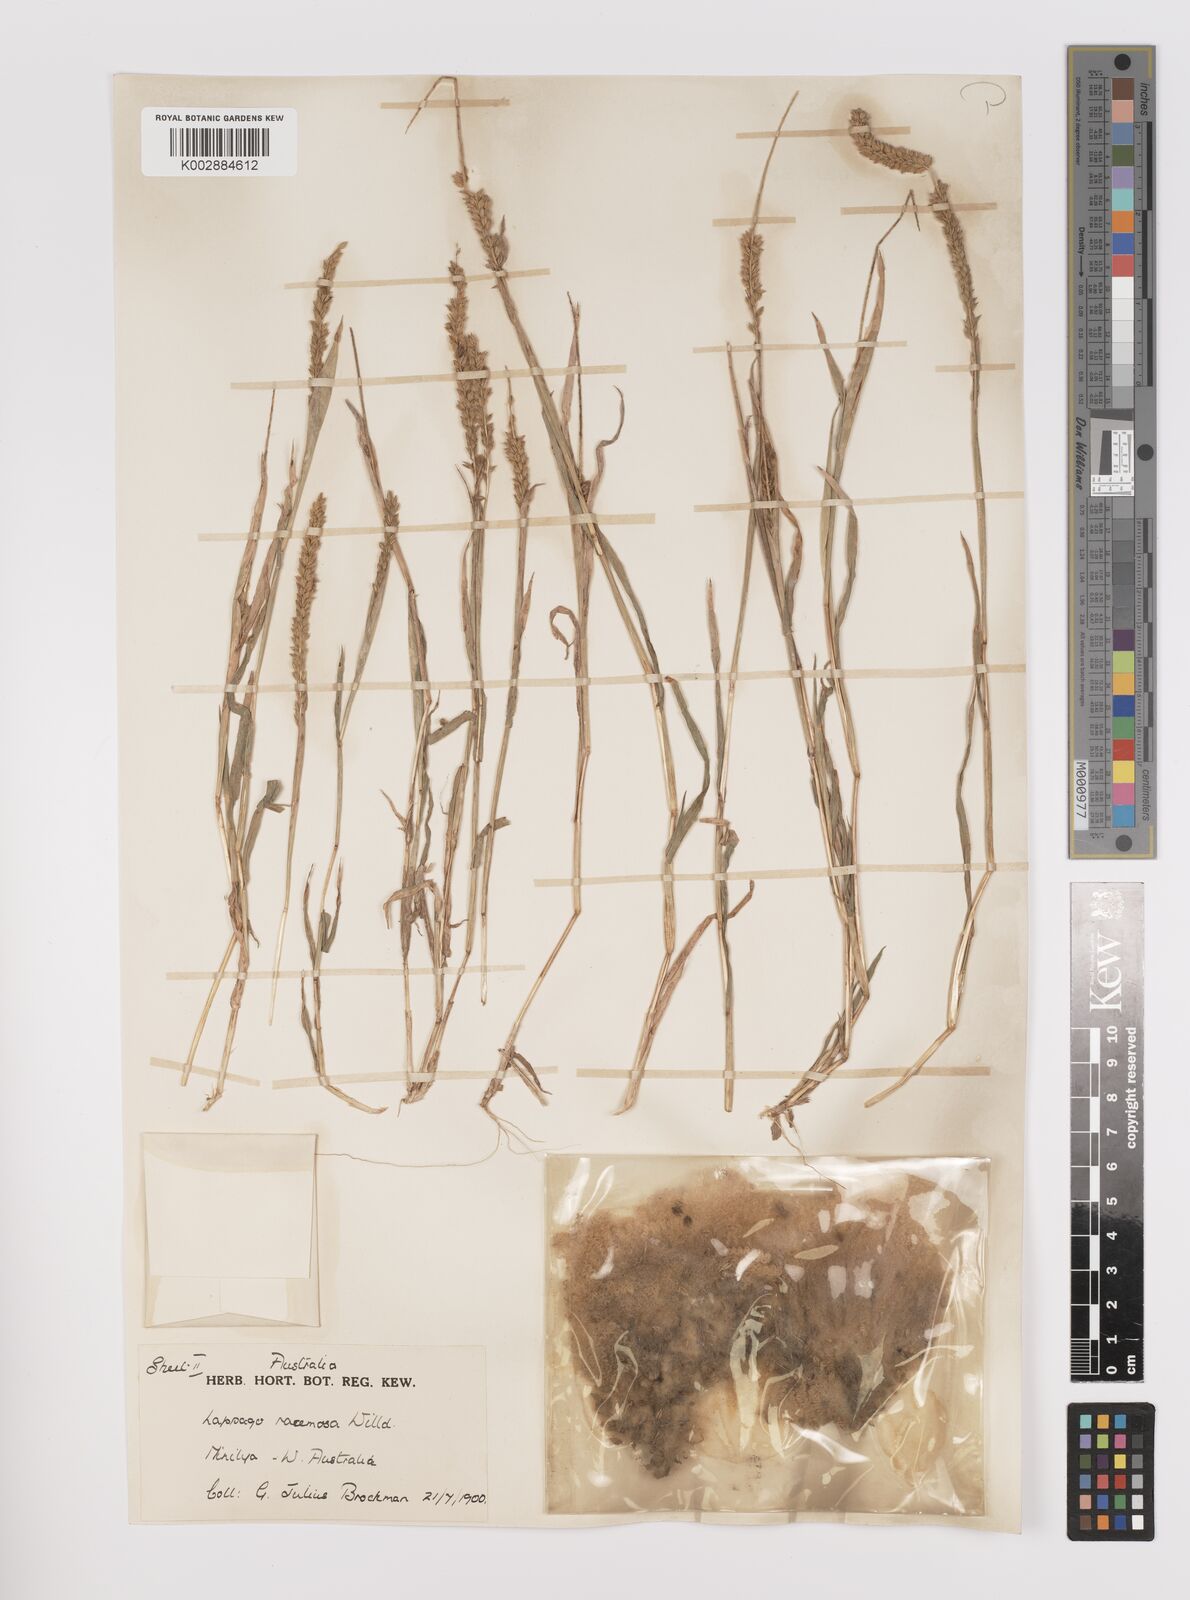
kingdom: Plantae
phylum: Tracheophyta
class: Liliopsida
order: Poales
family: Poaceae
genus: Tragus
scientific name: Tragus australianus
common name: Australian bur-grass
